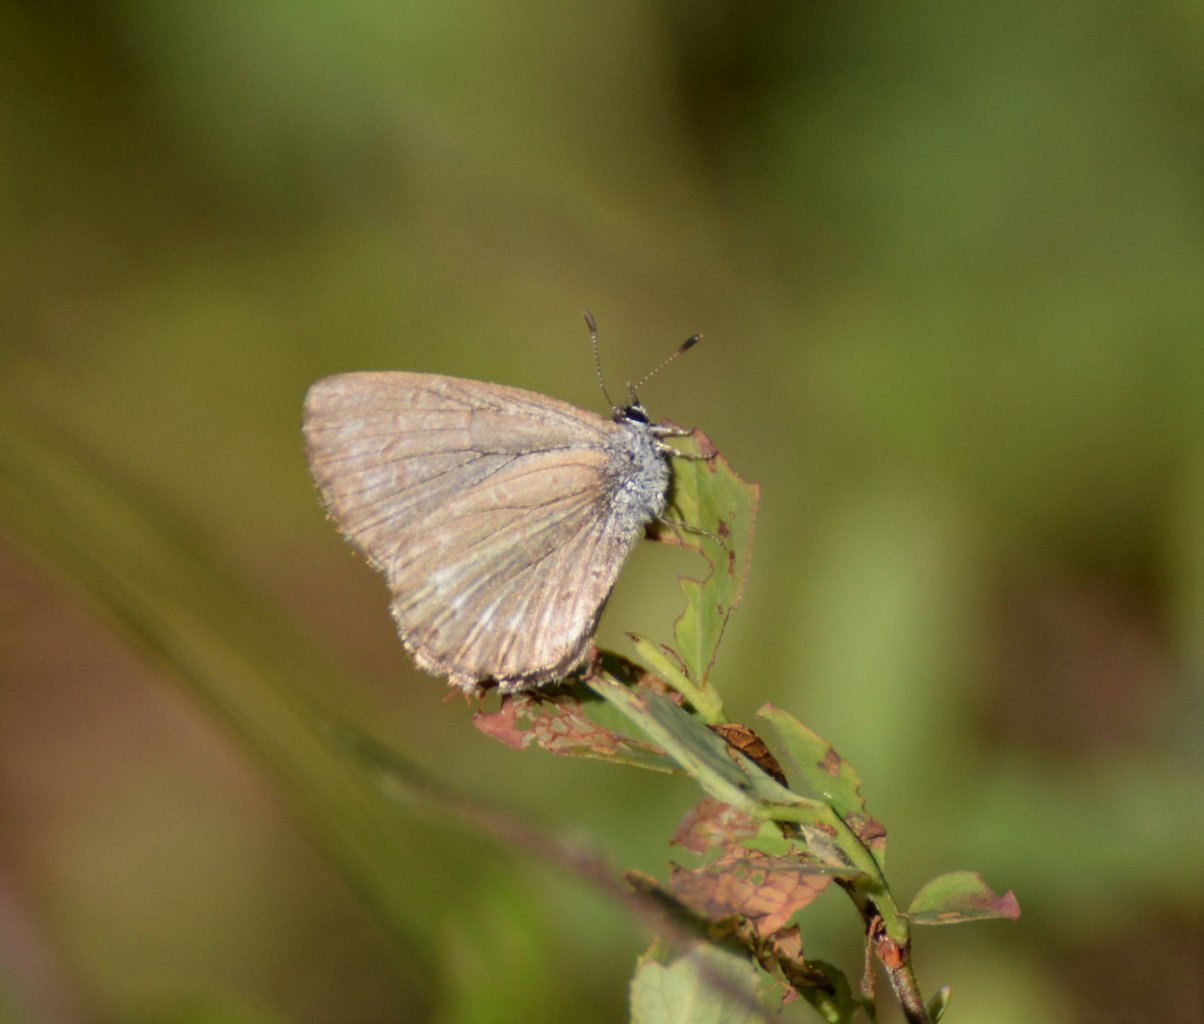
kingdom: Animalia
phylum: Arthropoda
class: Insecta
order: Lepidoptera
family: Lycaenidae
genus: Celastrina
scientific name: Celastrina lucia
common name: Northern Spring Azure
